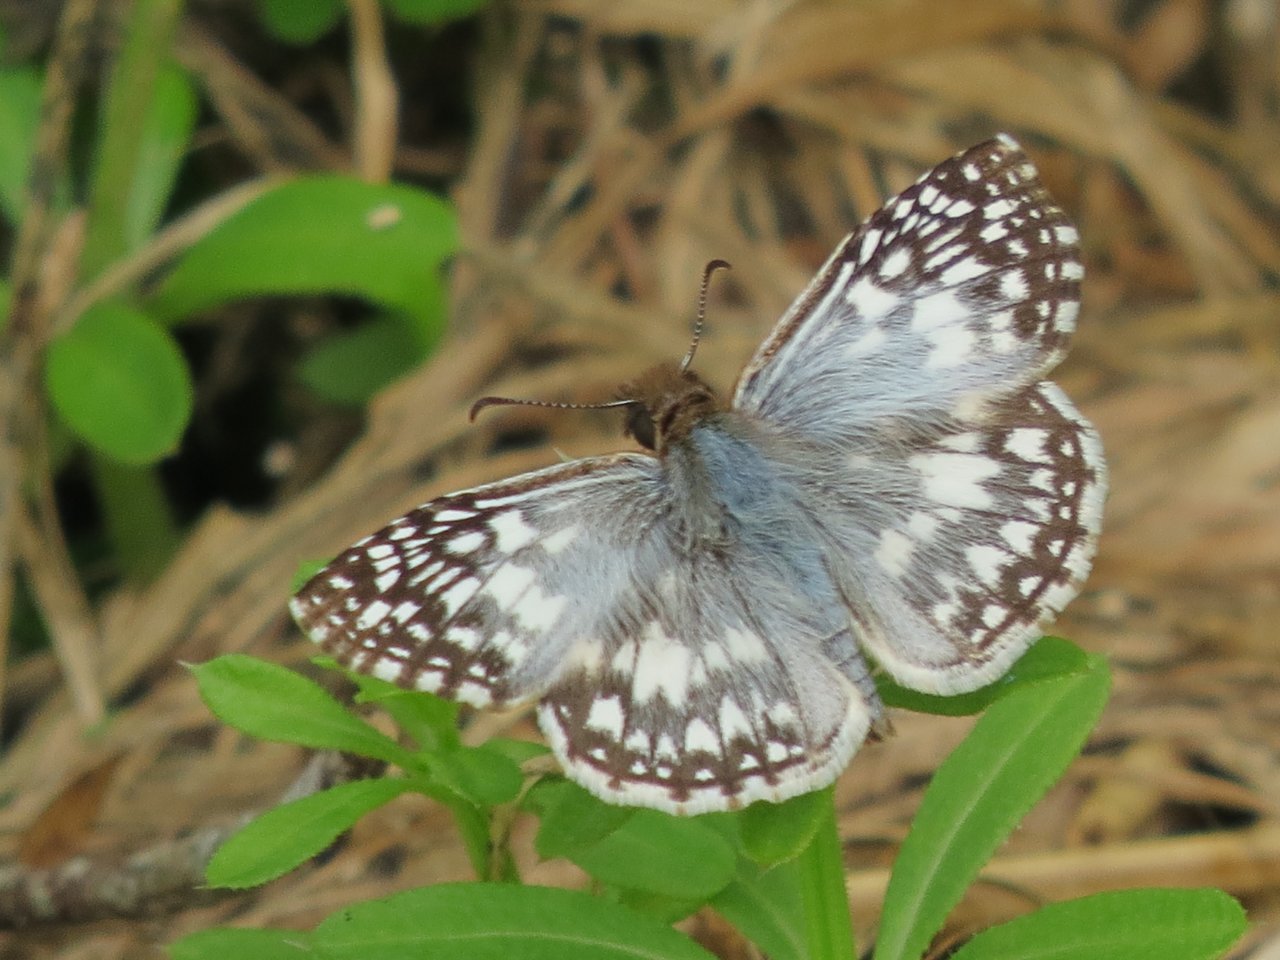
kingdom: Animalia
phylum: Arthropoda
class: Insecta
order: Lepidoptera
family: Hesperiidae
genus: Pyrgus
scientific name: Pyrgus communis
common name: White Checkered-Skipper
